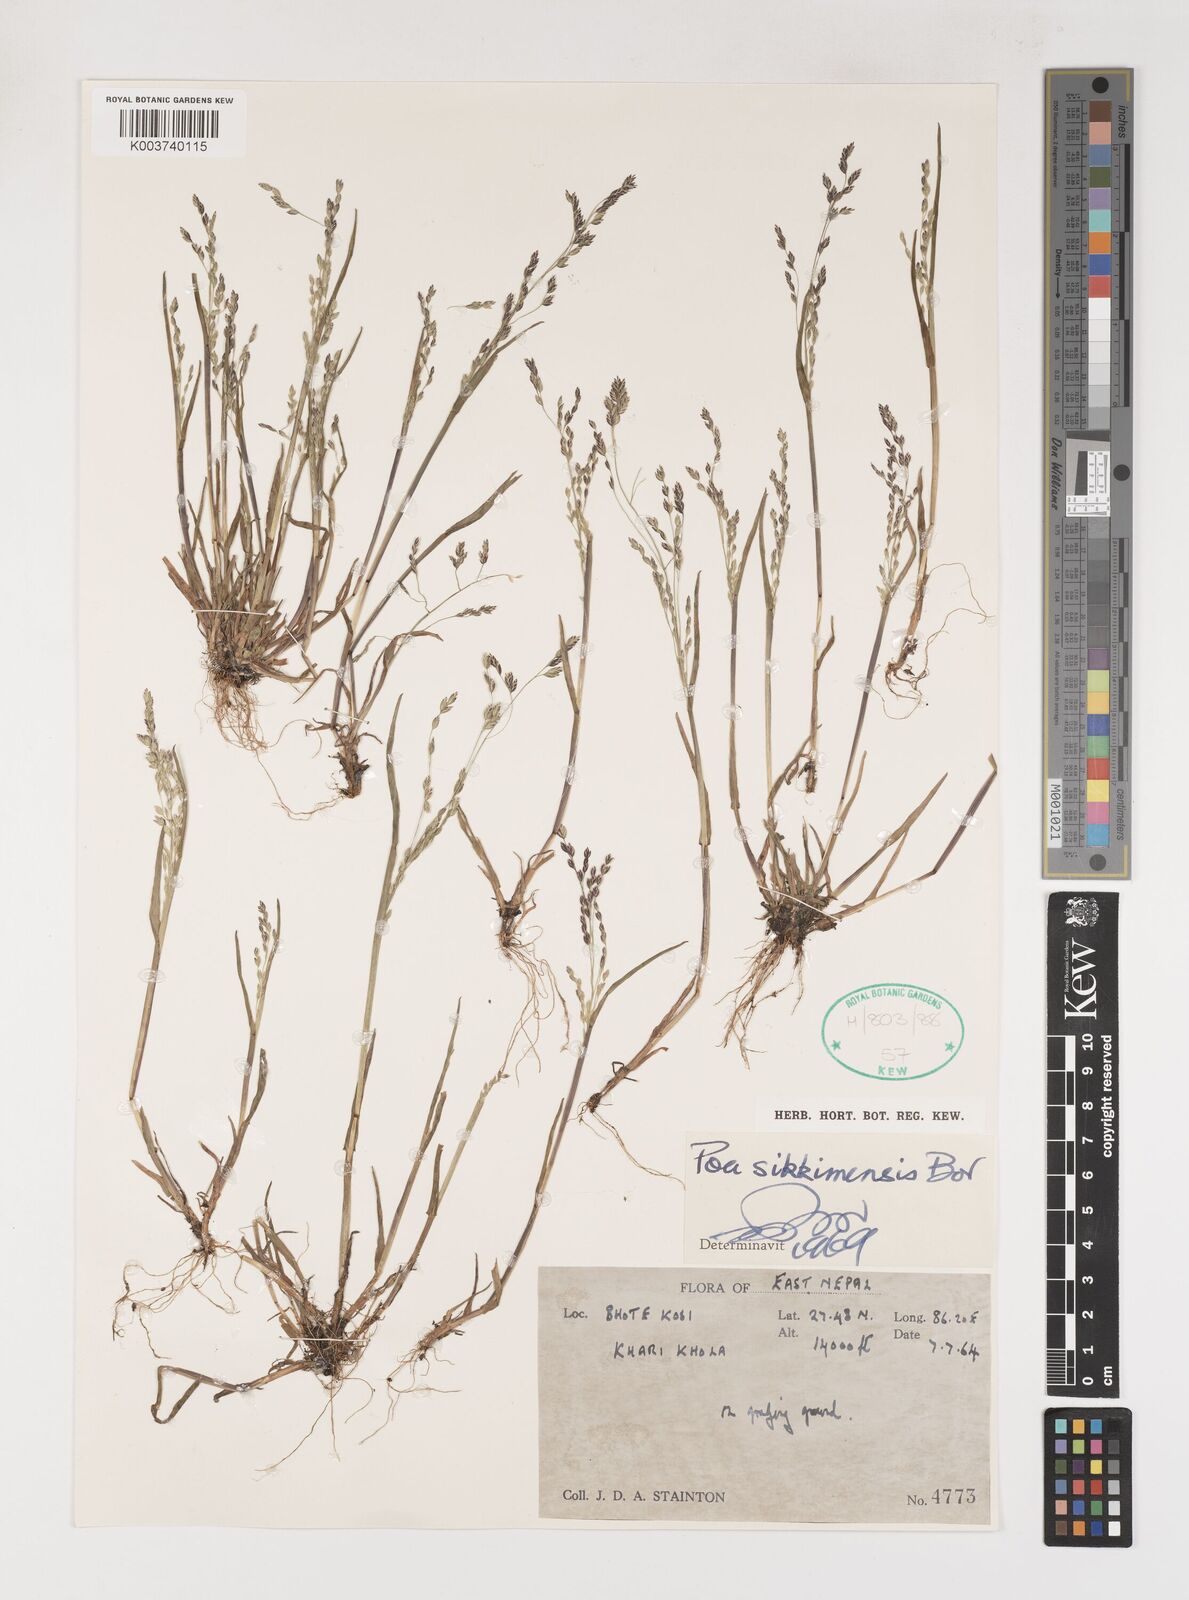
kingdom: Plantae
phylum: Tracheophyta
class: Liliopsida
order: Poales
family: Poaceae
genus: Poa
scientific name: Poa sikkimensis
